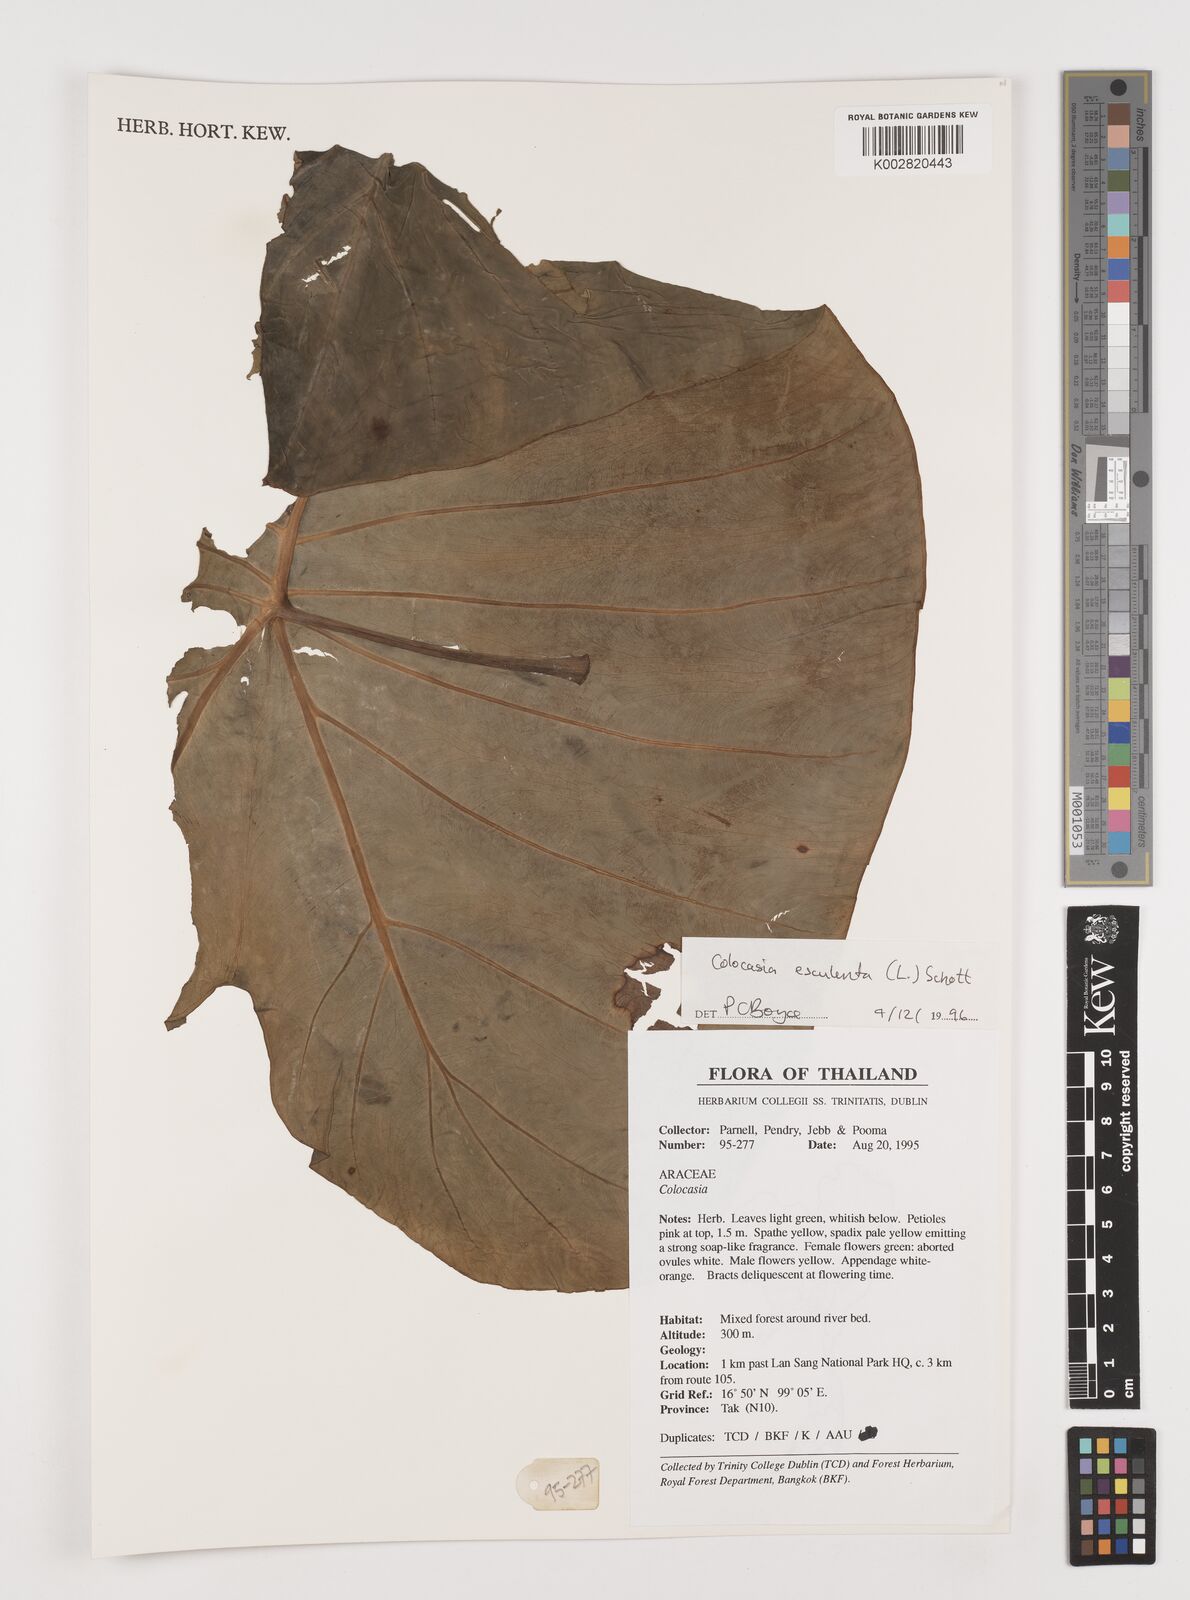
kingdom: Plantae
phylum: Tracheophyta
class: Liliopsida
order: Alismatales
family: Araceae
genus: Colocasia
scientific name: Colocasia esculenta
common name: Taro
